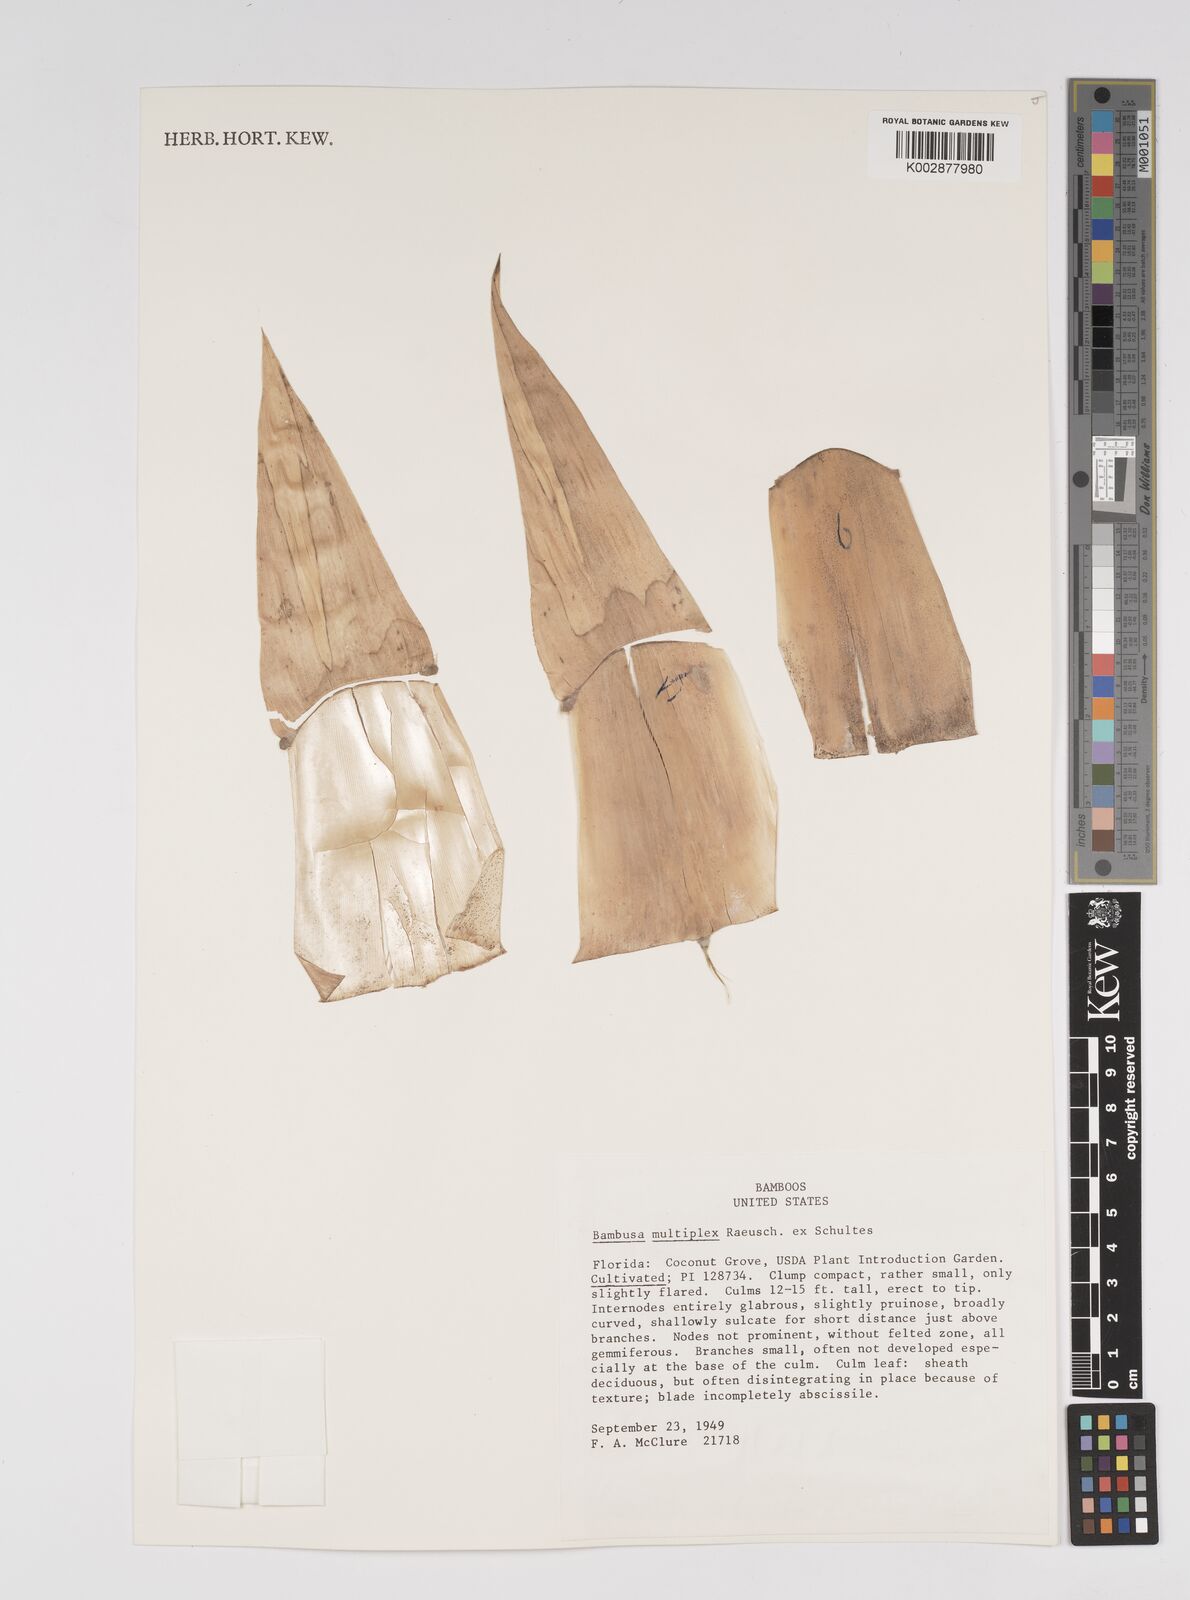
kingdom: Plantae
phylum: Tracheophyta
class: Liliopsida
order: Poales
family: Poaceae
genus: Bambusa
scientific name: Bambusa
